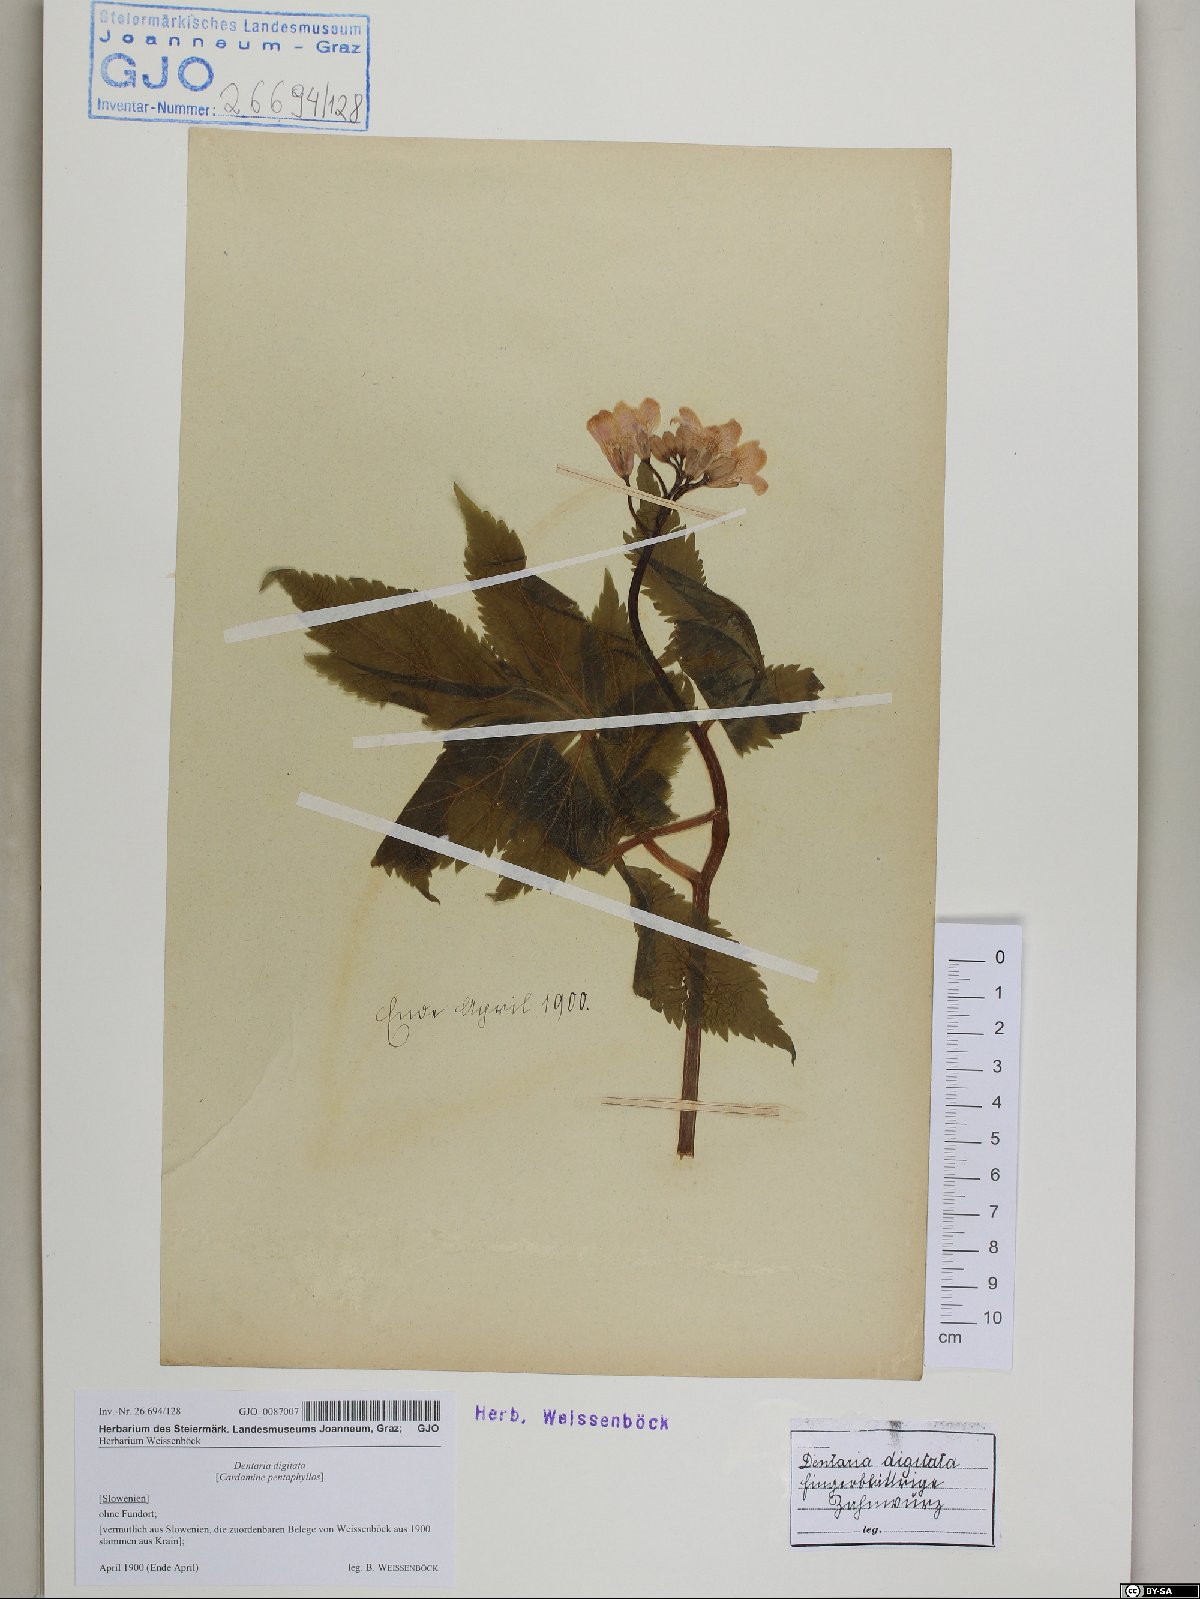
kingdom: Plantae
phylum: Tracheophyta
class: Magnoliopsida
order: Brassicales
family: Brassicaceae
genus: Cardamine
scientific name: Cardamine pentaphyllos
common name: Five-leaflet bitter-cress
